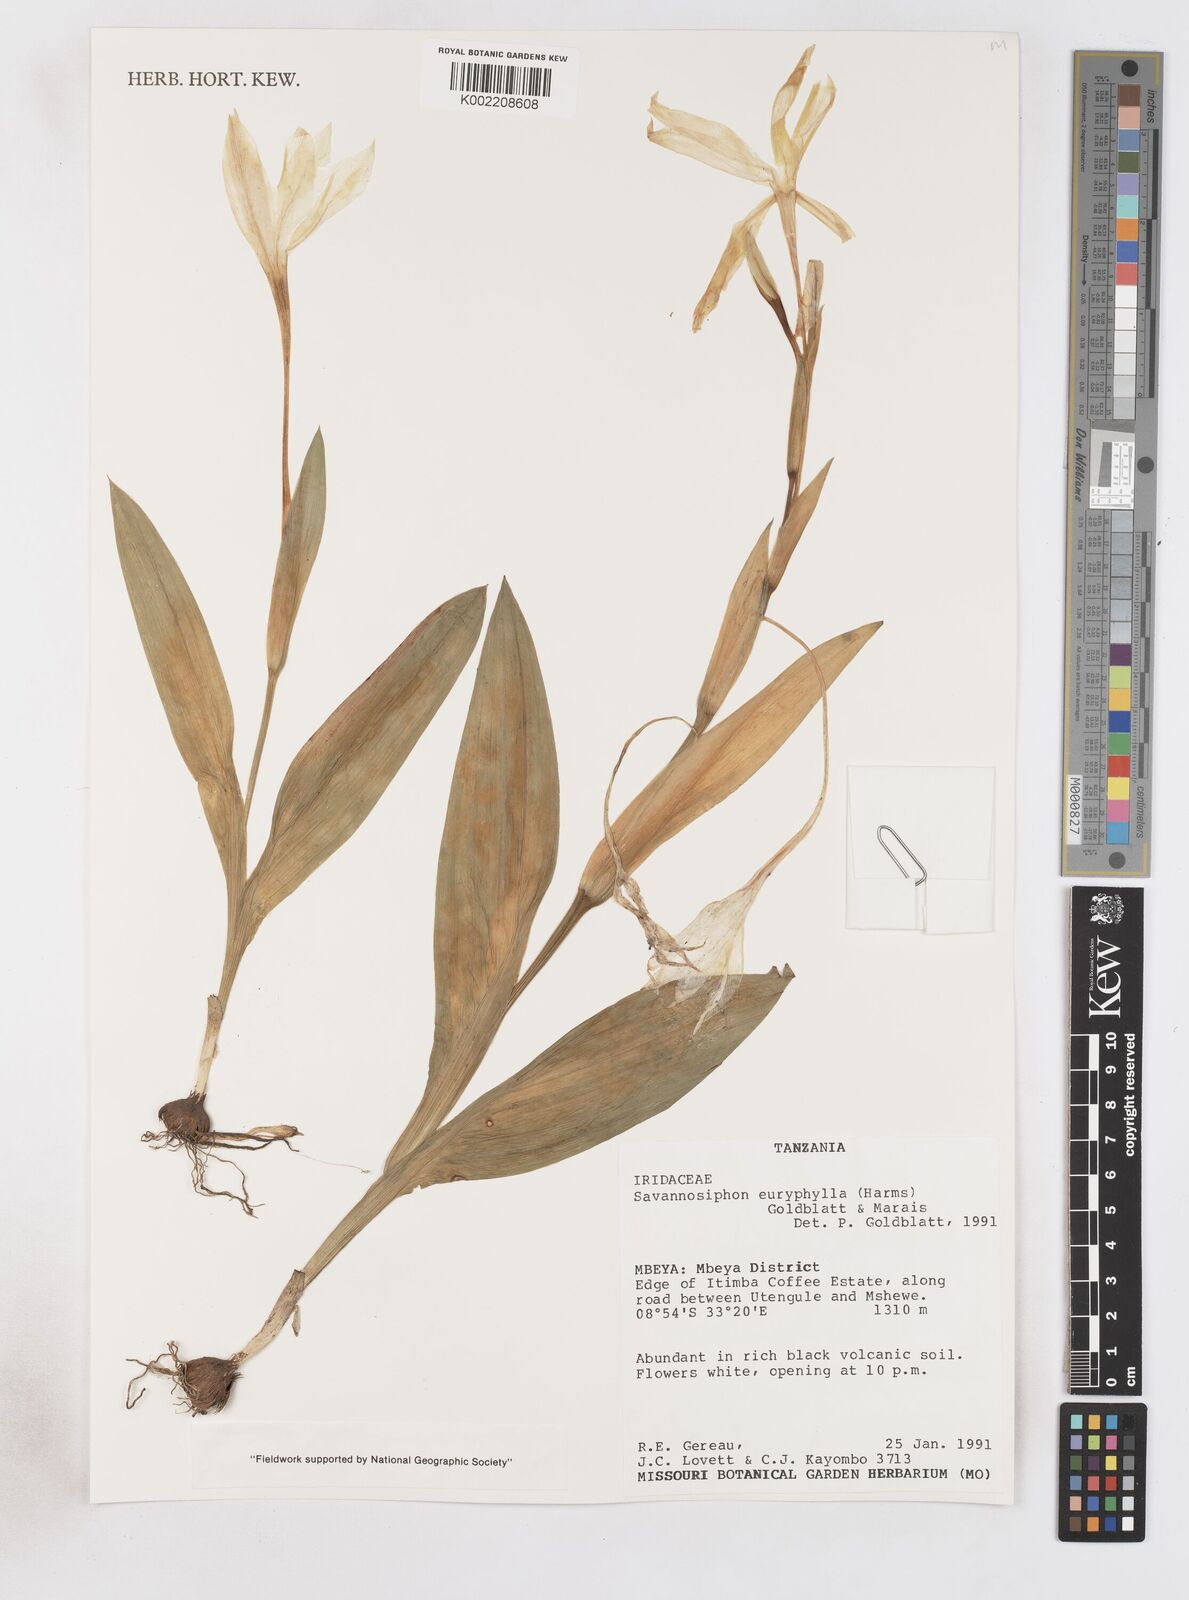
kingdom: Plantae
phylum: Tracheophyta
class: Liliopsida
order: Asparagales
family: Iridaceae
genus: Savannosiphon
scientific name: Savannosiphon euryphylla
